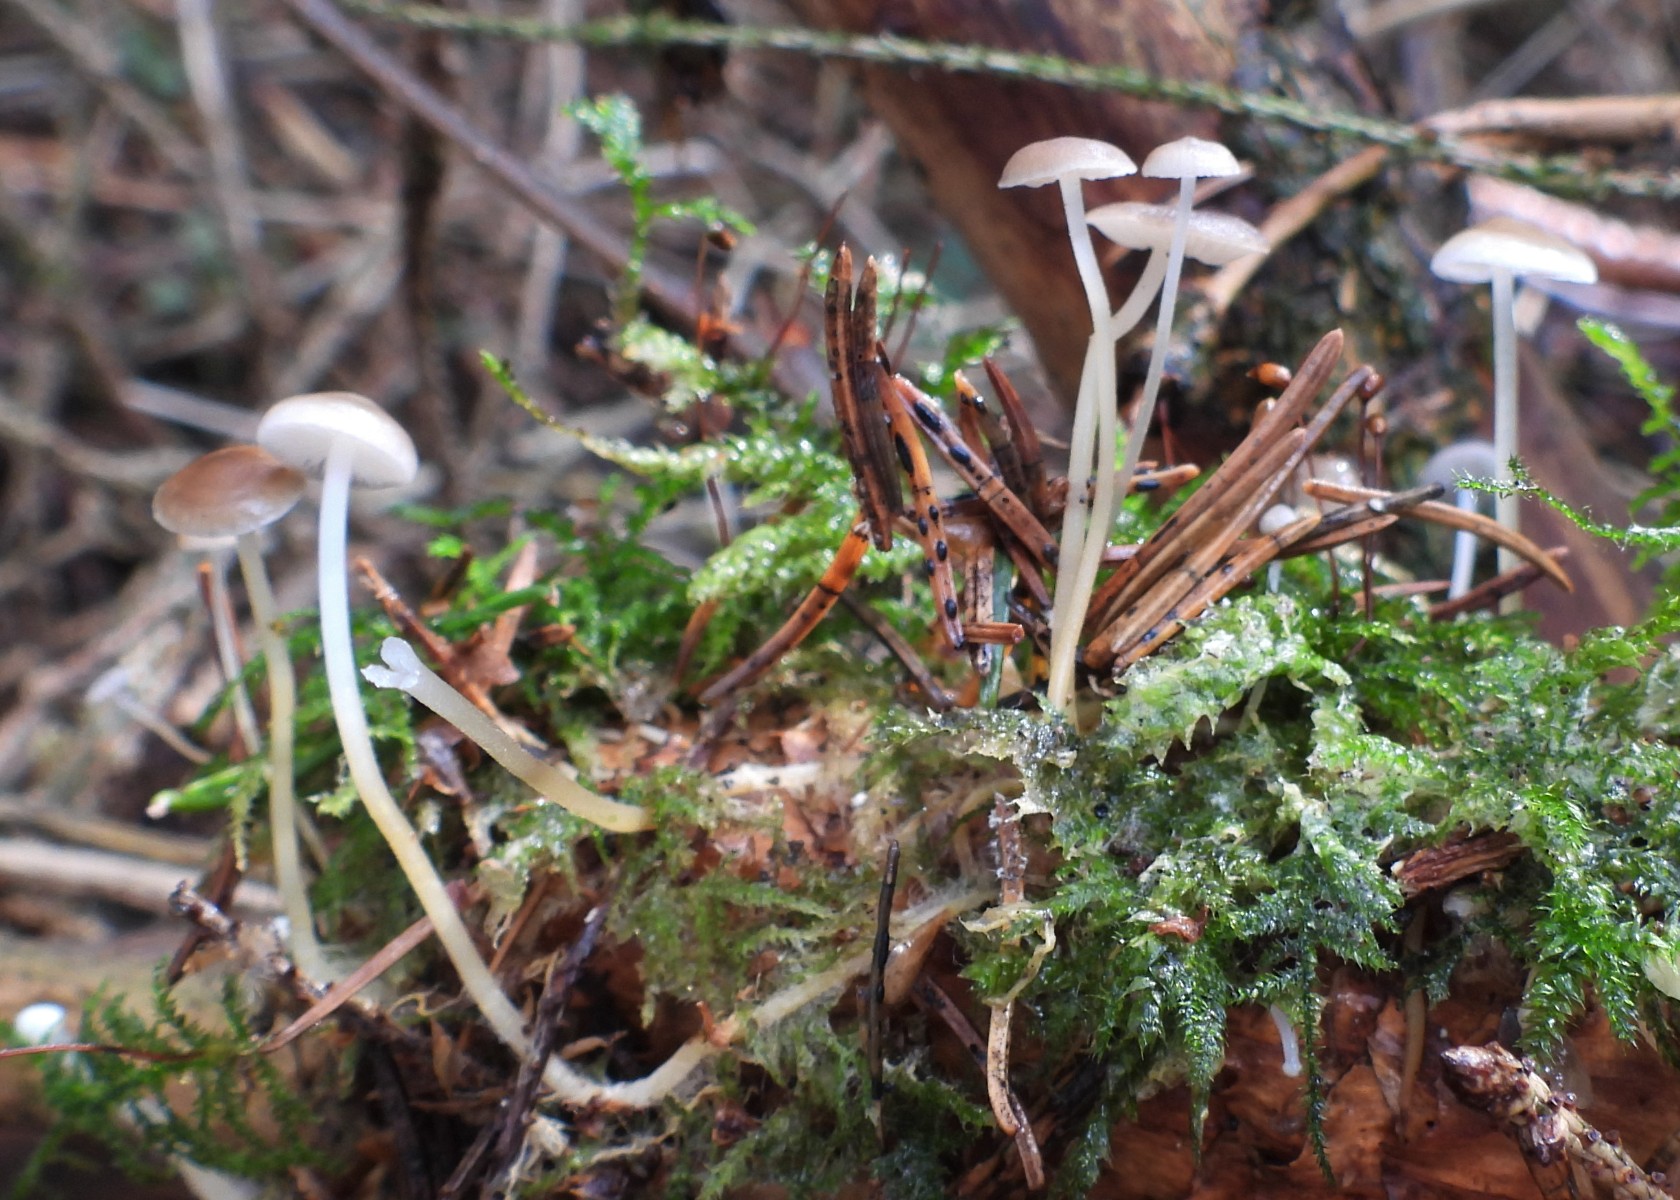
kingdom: Fungi
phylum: Basidiomycota
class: Agaricomycetes
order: Agaricales
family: Physalacriaceae
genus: Strobilurus
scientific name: Strobilurus esculentus
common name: gran-koglehat
